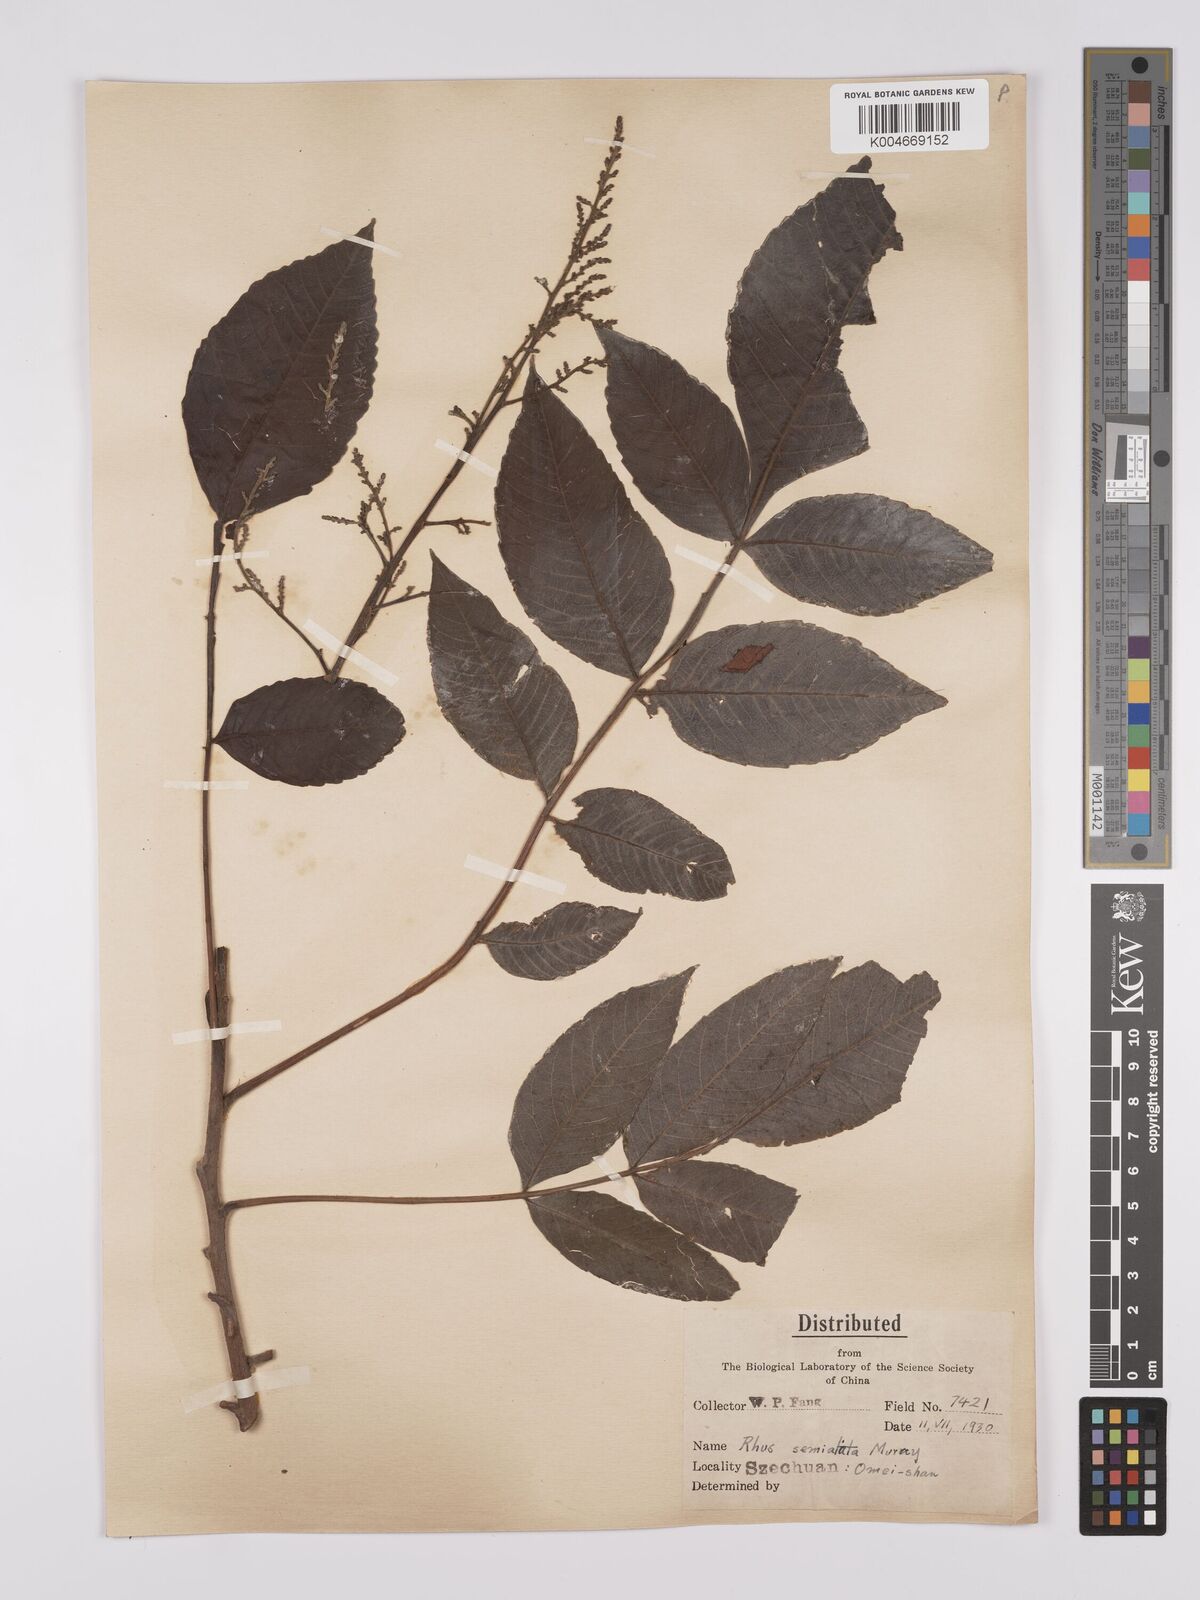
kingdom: Plantae
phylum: Tracheophyta
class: Magnoliopsida
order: Sapindales
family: Anacardiaceae
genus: Rhus
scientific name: Rhus chinensis
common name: Chinese gall
